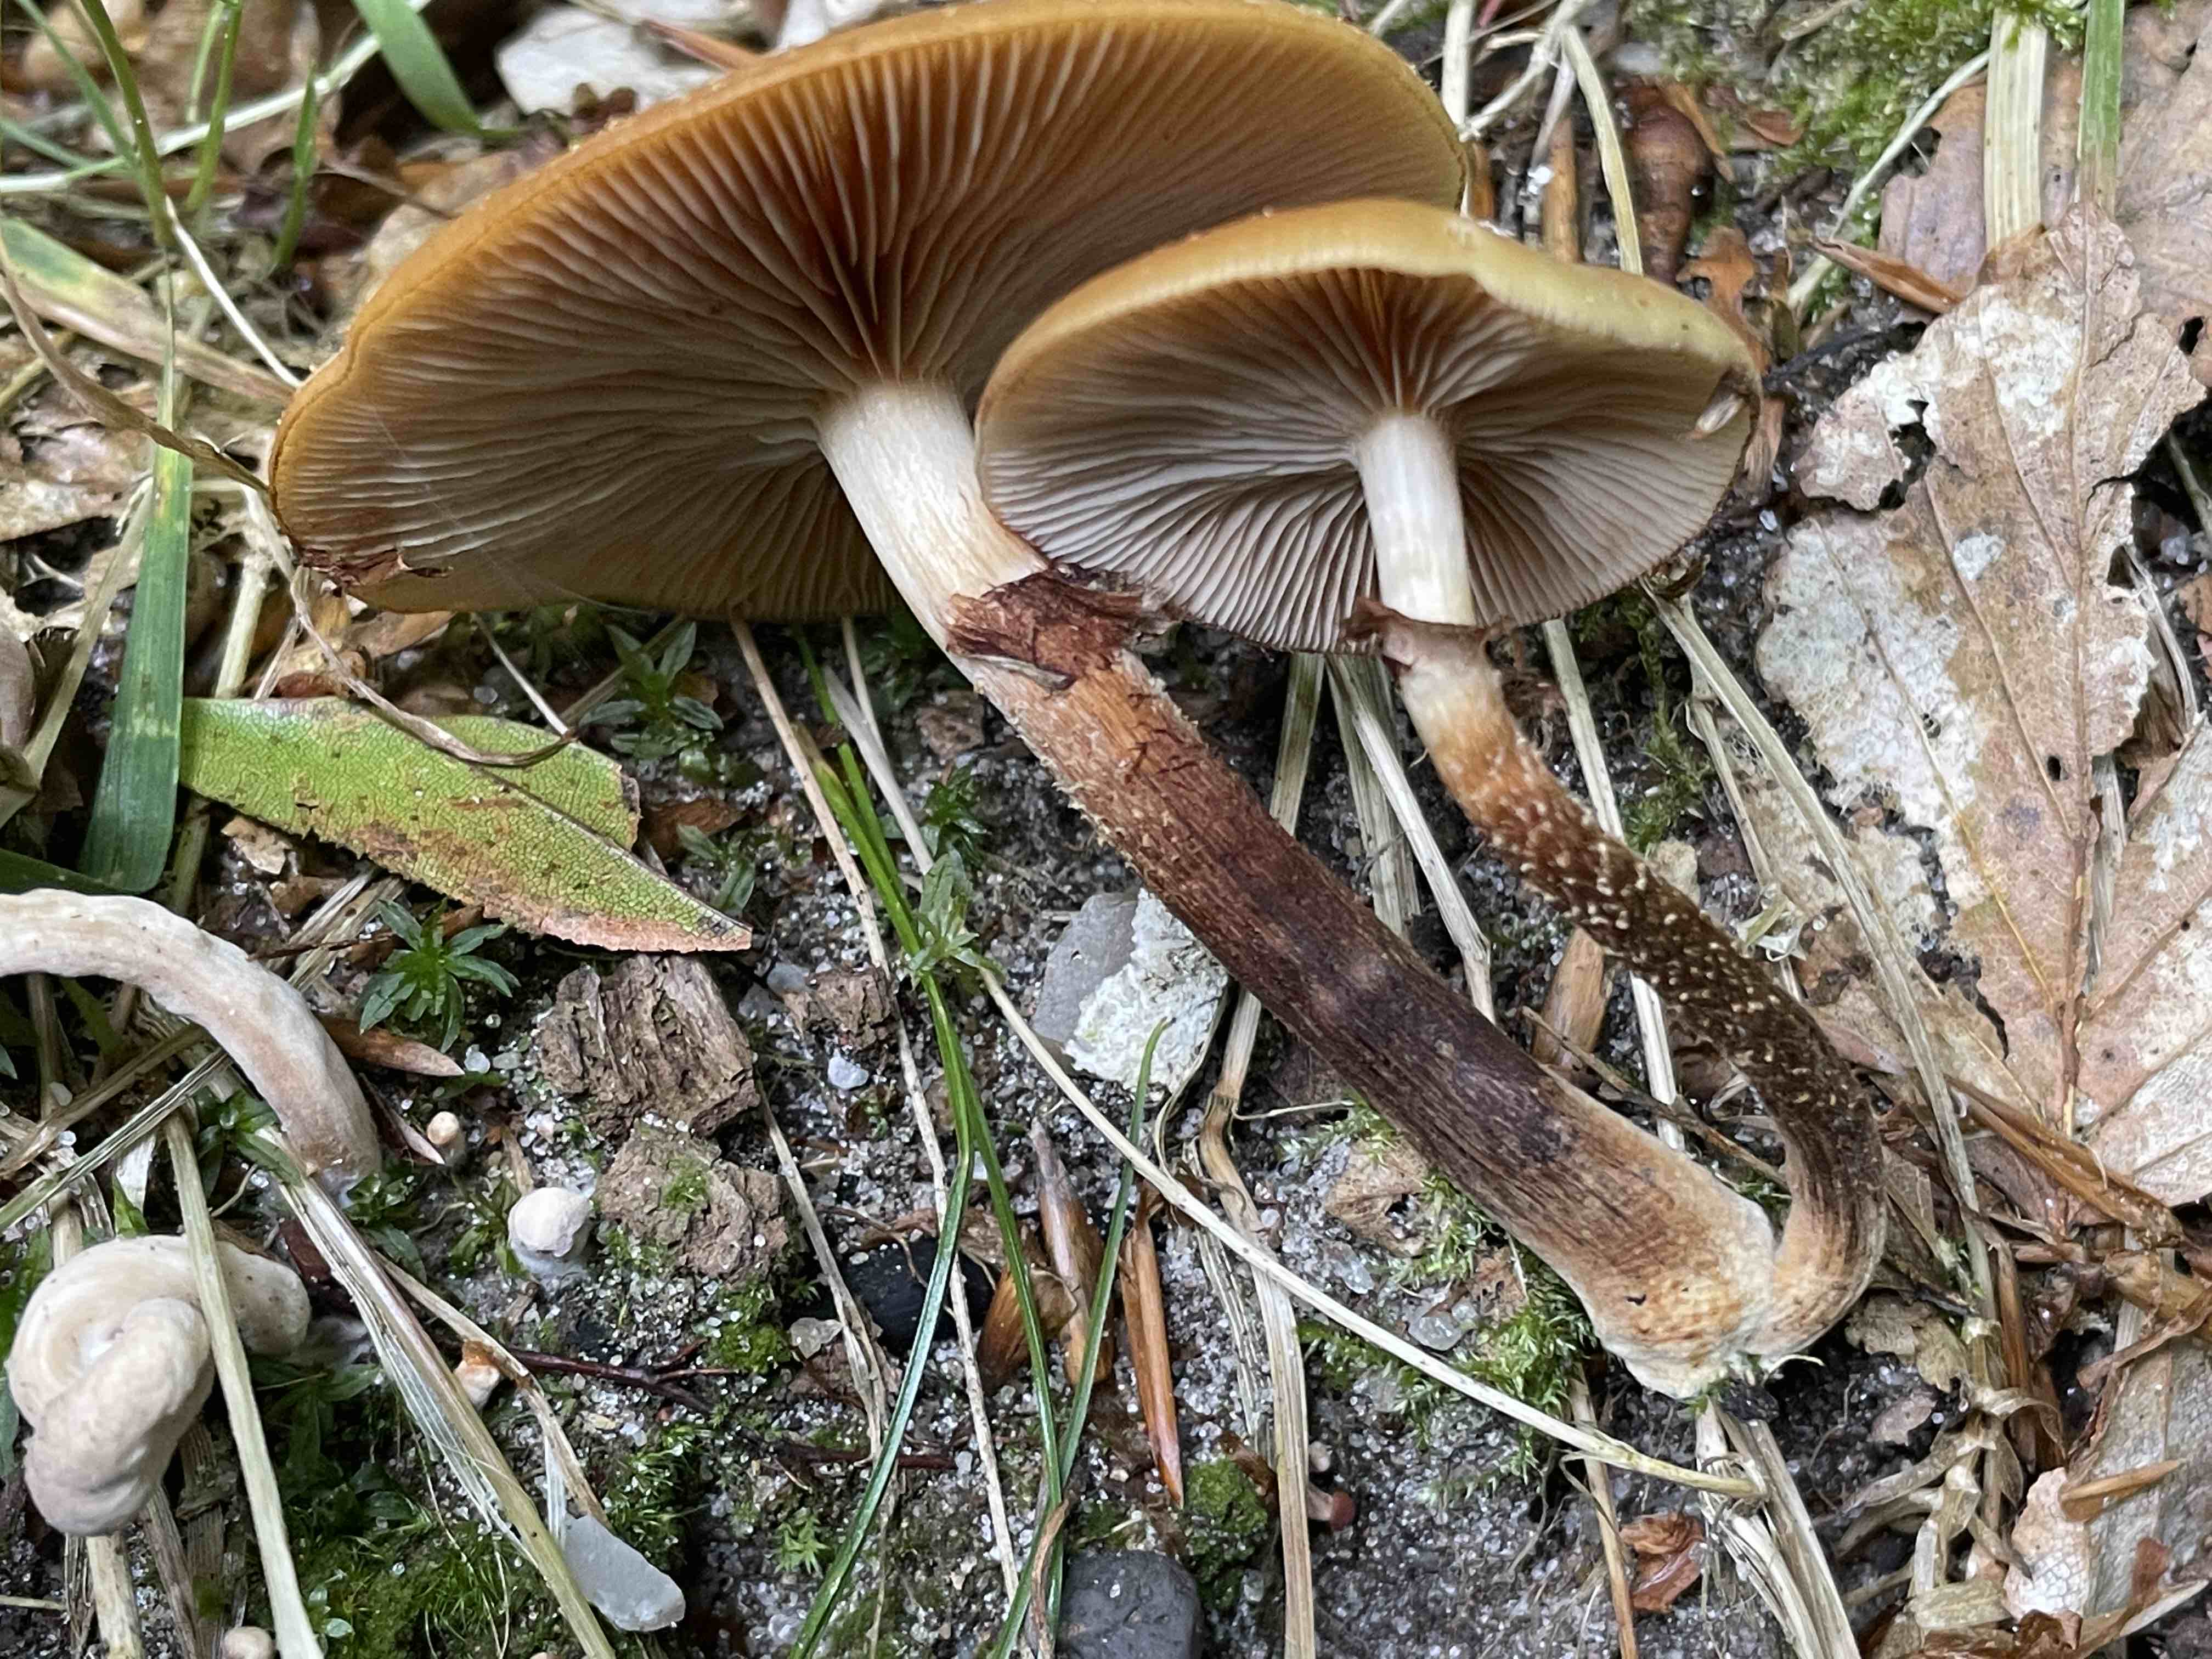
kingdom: Fungi
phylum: Basidiomycota
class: Agaricomycetes
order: Agaricales
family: Strophariaceae
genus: Kuehneromyces
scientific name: Kuehneromyces mutabilis
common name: foranderlig skælhat
